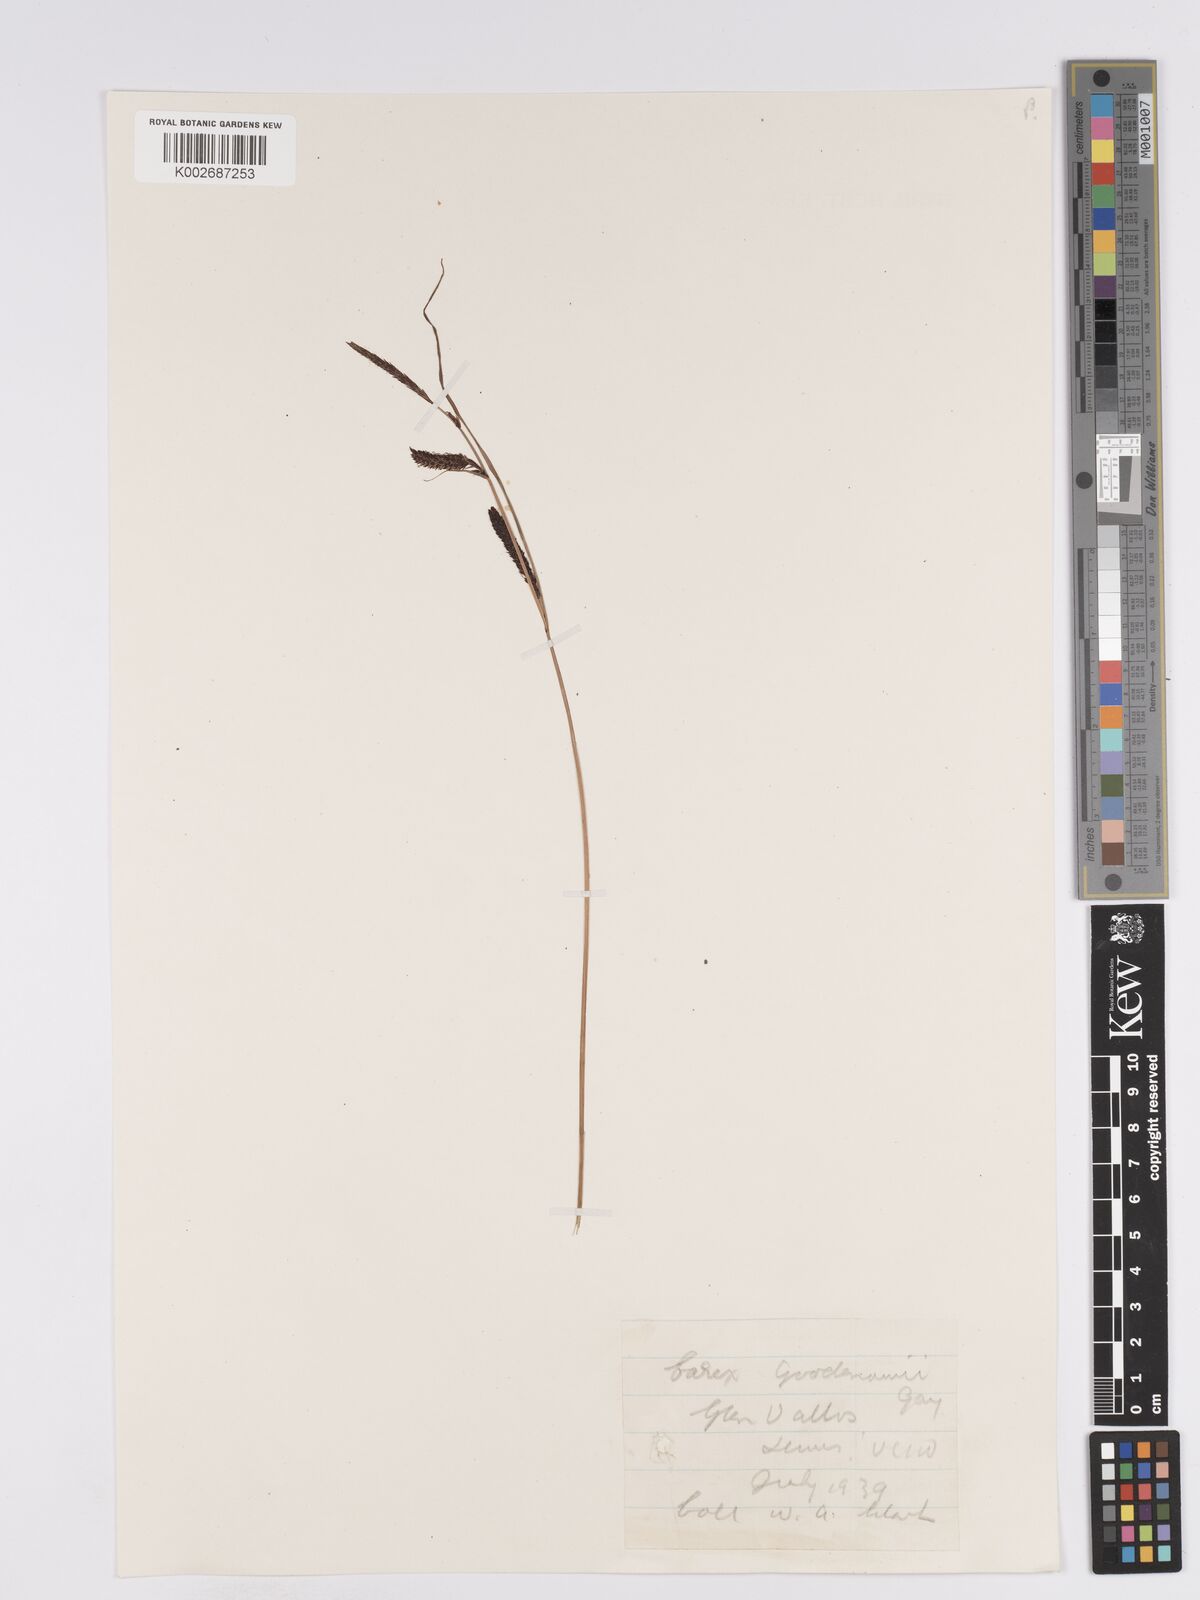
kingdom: Plantae
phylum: Tracheophyta
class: Liliopsida
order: Poales
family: Cyperaceae
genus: Carex
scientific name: Carex nigra
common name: Common sedge
